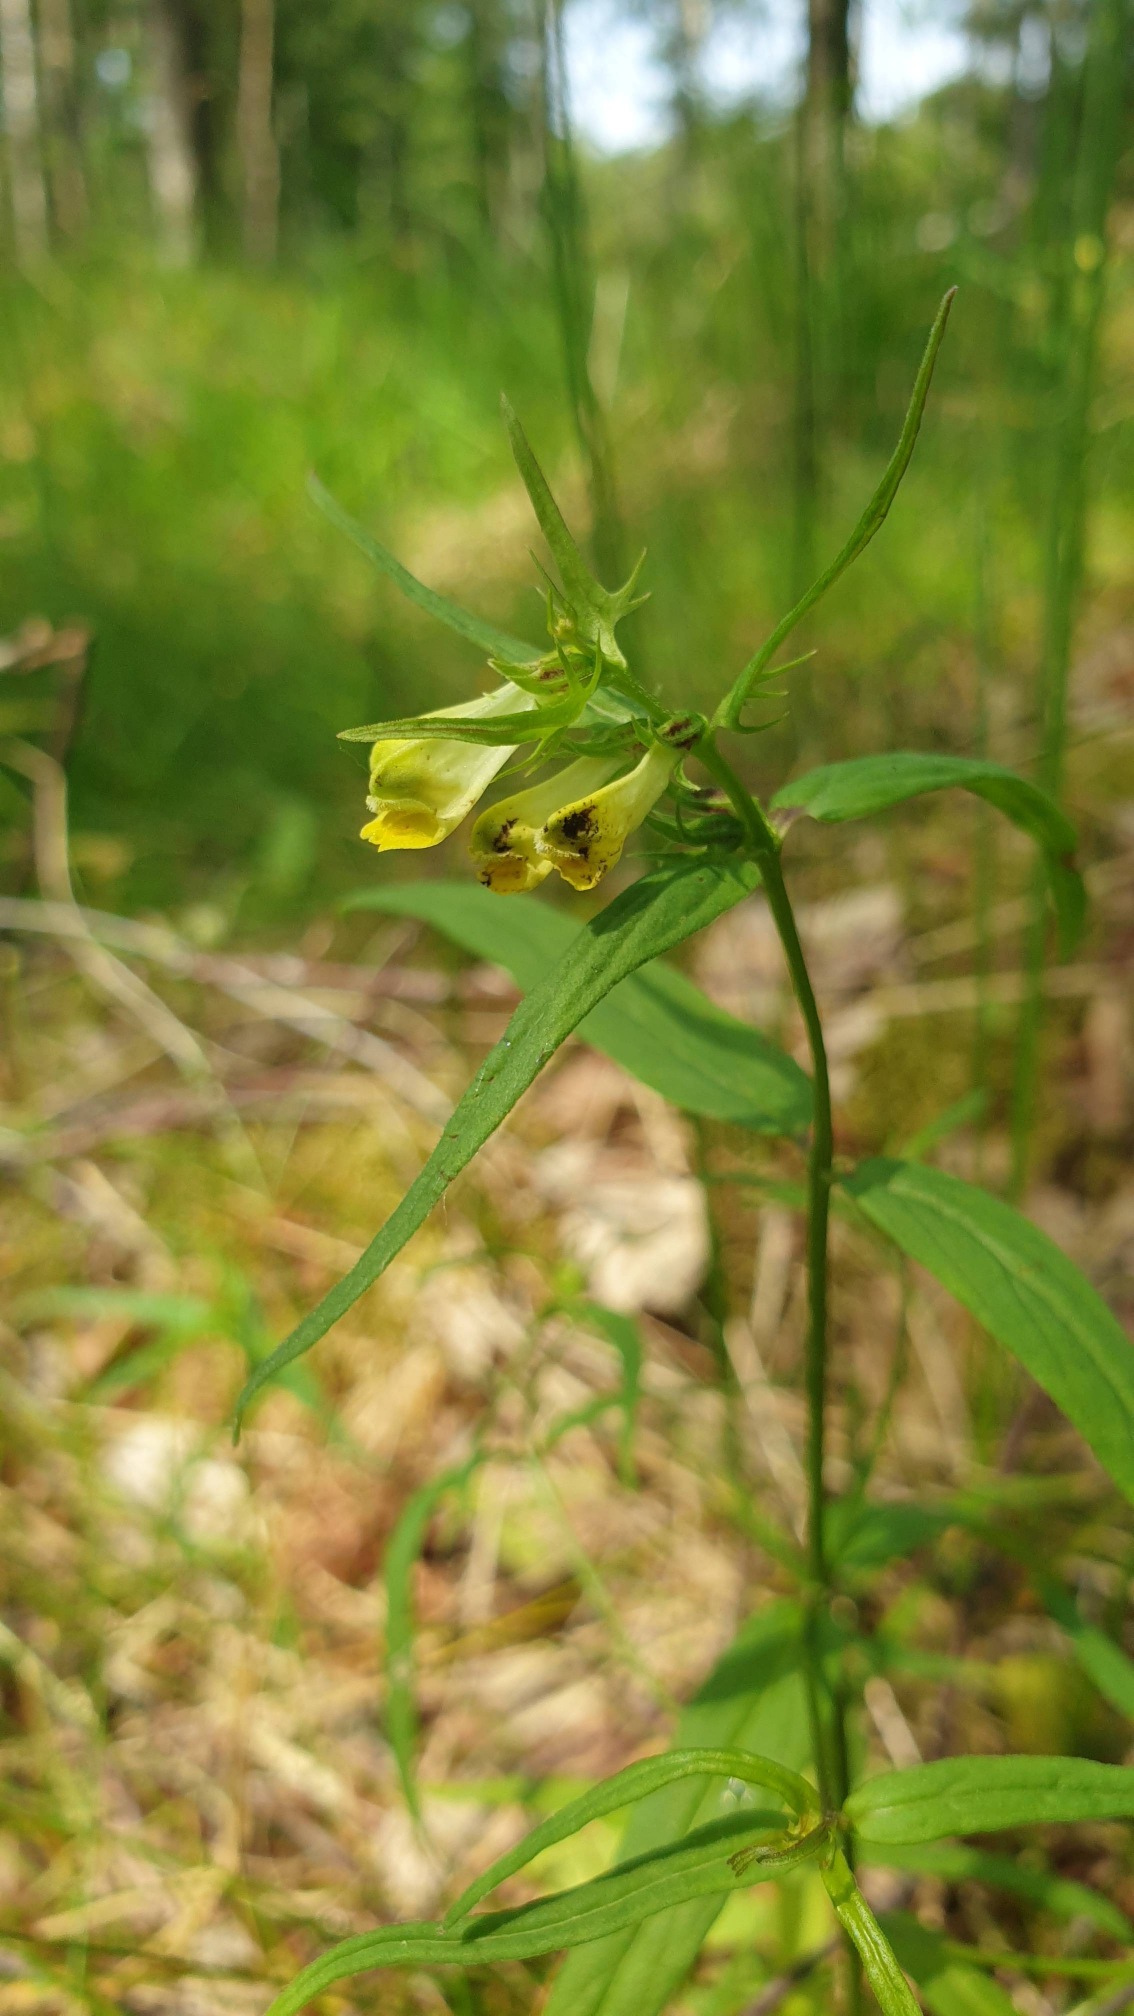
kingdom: Plantae
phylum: Tracheophyta
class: Magnoliopsida
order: Lamiales
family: Orobanchaceae
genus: Melampyrum
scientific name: Melampyrum pratense
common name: Almindelig kohvede
